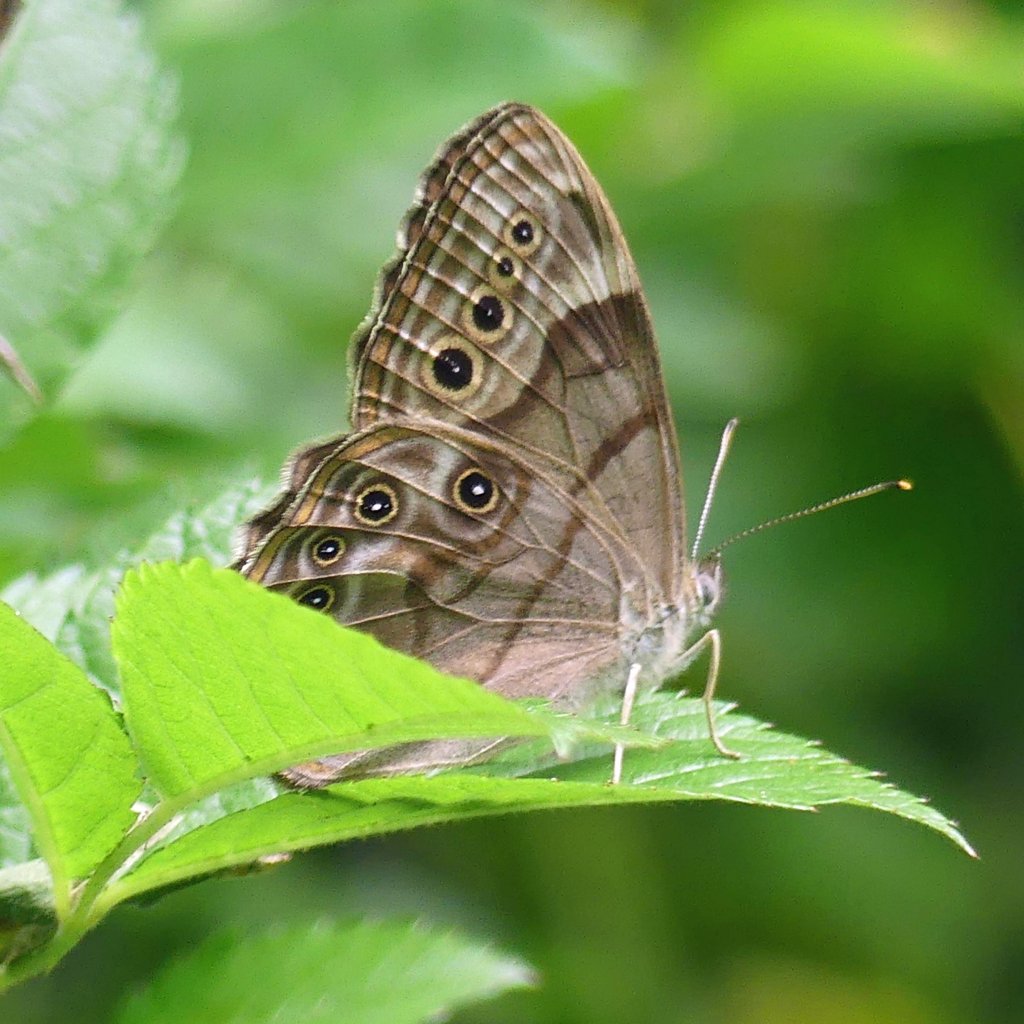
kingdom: Animalia
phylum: Arthropoda
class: Insecta
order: Lepidoptera
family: Nymphalidae
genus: Lethe
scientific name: Lethe anthedon
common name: Northern Pearly-Eye
